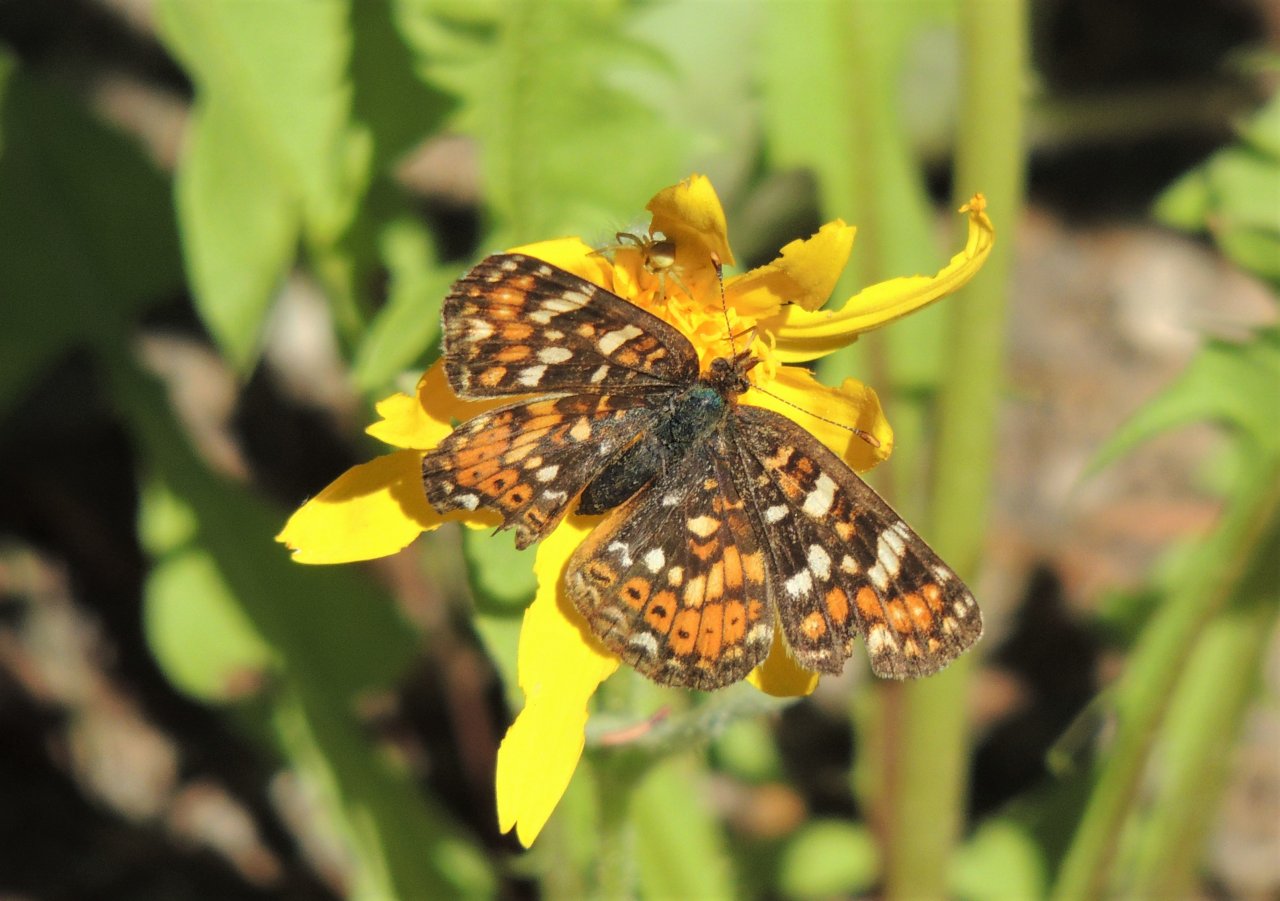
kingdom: Animalia
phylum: Arthropoda
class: Insecta
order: Lepidoptera
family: Nymphalidae
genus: Phyciodes
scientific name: Phyciodes tharos
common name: Field Crescent
